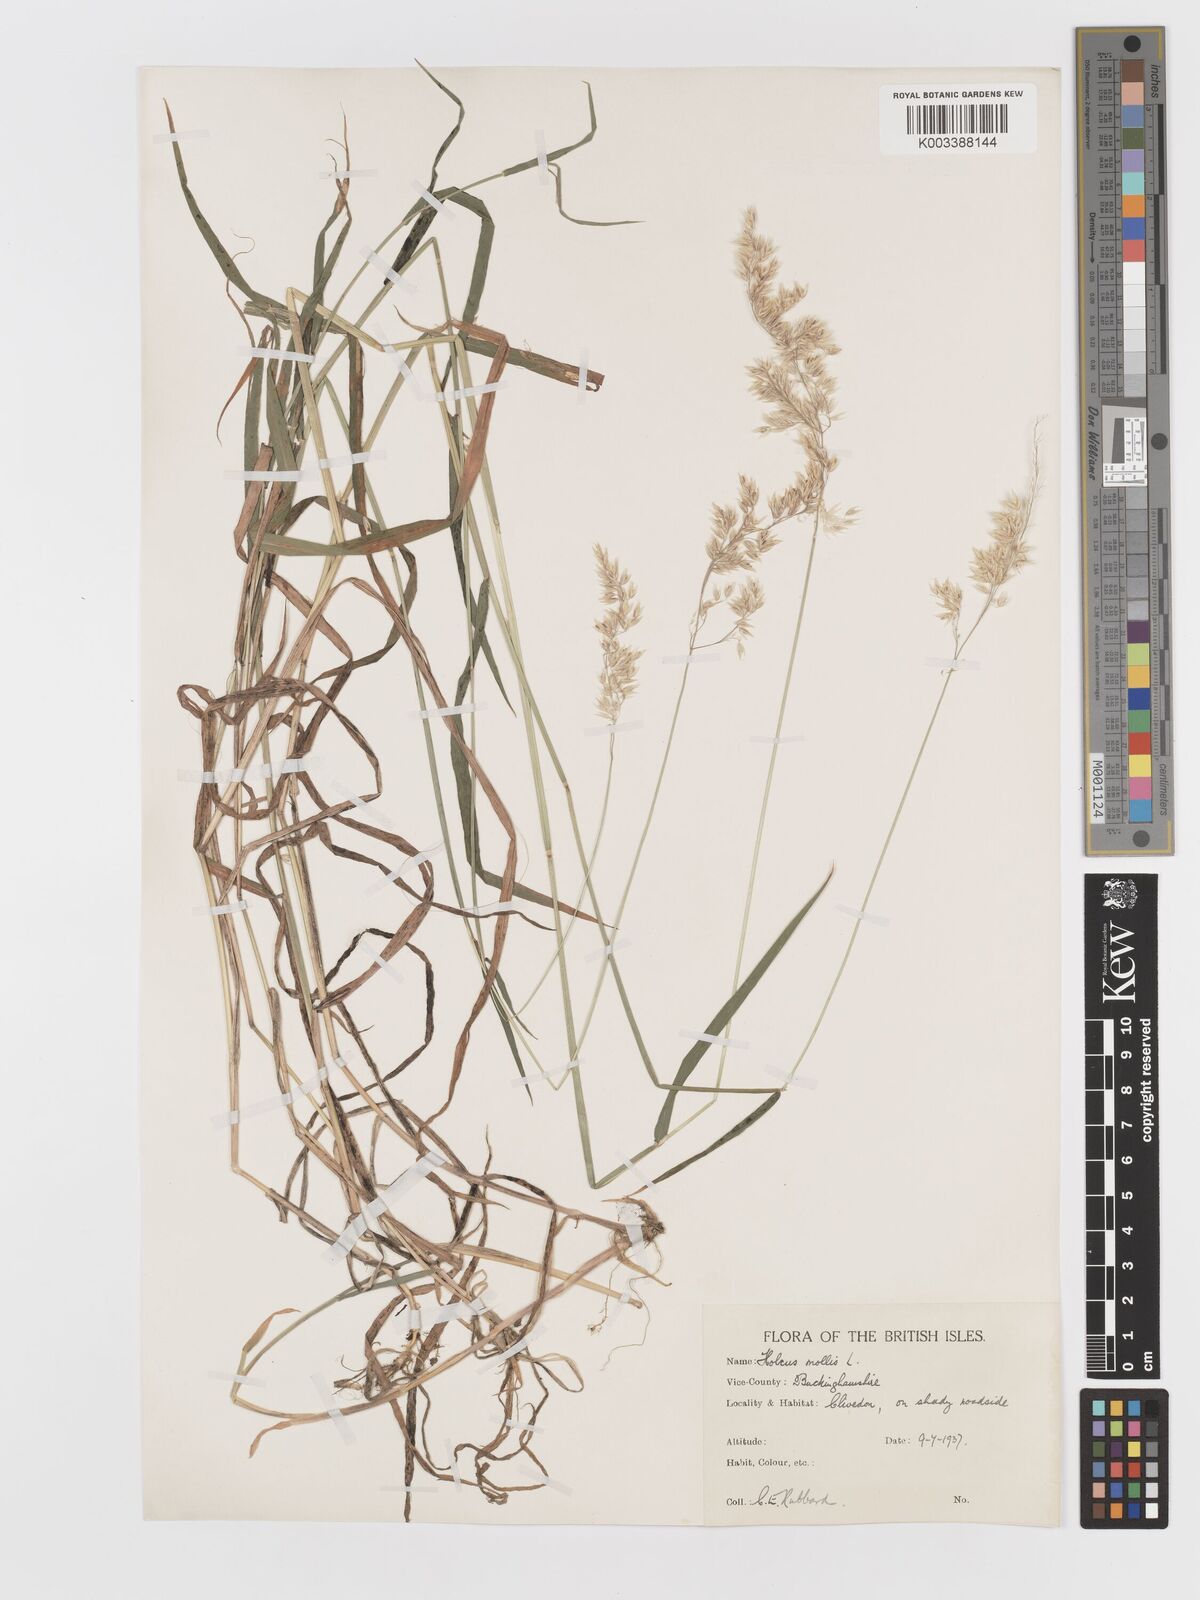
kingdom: Plantae
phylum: Tracheophyta
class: Liliopsida
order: Poales
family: Poaceae
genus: Holcus
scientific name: Holcus mollis
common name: Creeping velvetgrass
